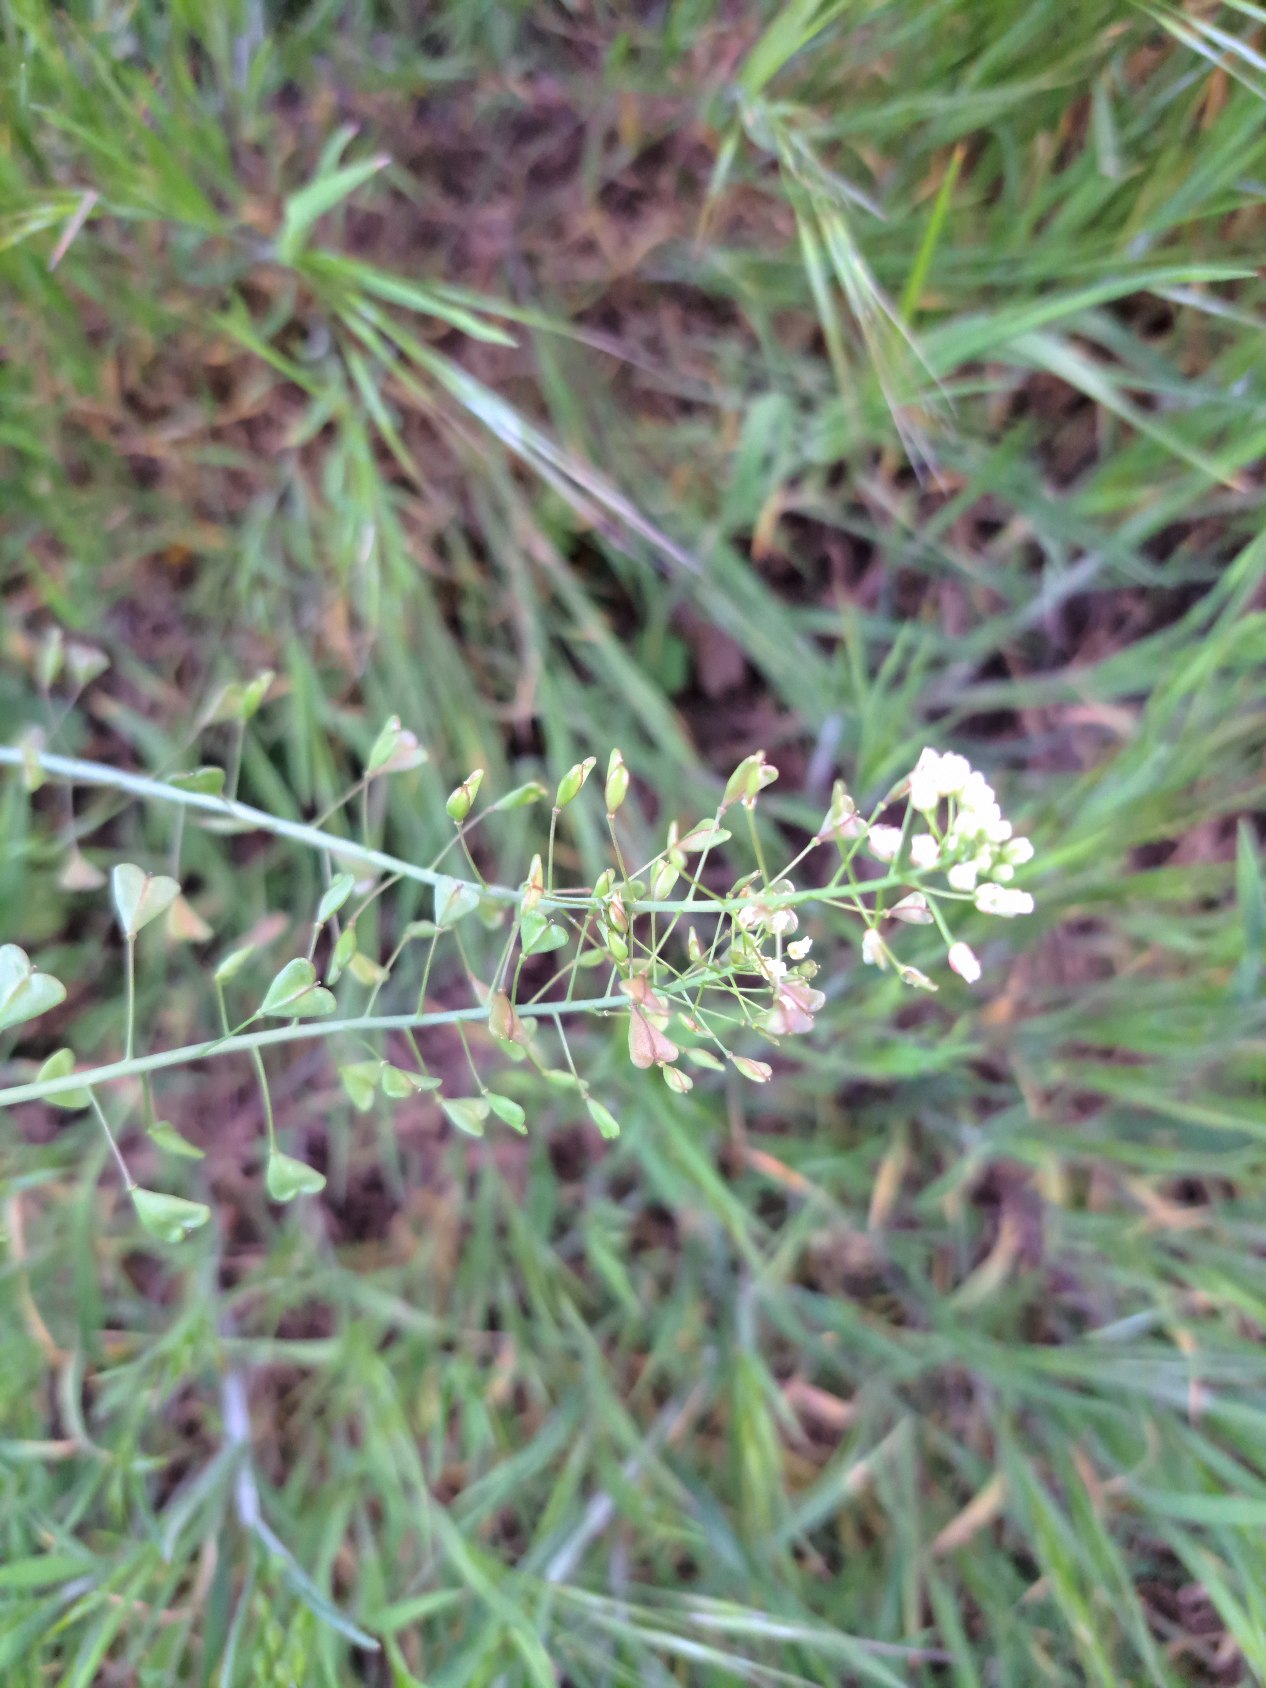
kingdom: Plantae
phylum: Tracheophyta
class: Magnoliopsida
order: Brassicales
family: Brassicaceae
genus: Capsella
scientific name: Capsella bursa-pastoris
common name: Hyrdetaske
